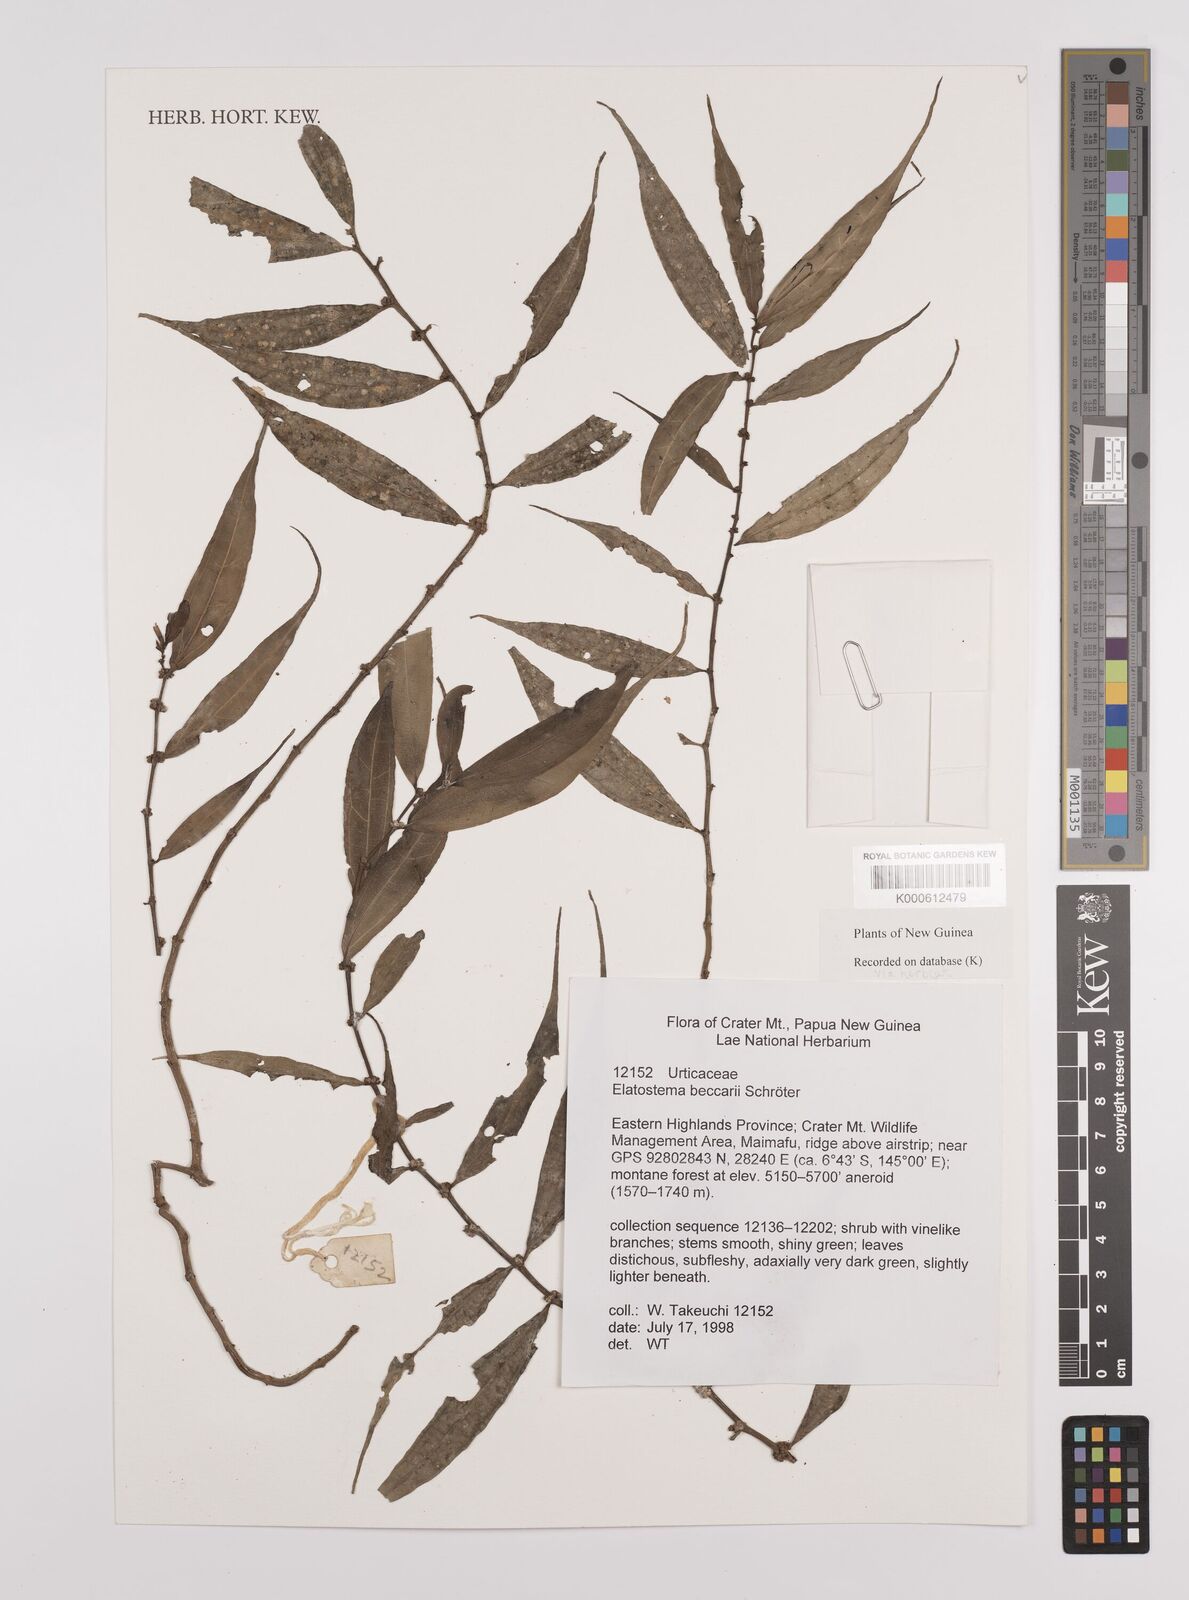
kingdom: Plantae
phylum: Tracheophyta
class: Magnoliopsida
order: Rosales
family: Urticaceae
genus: Elatostema
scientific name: Elatostema beccarii
